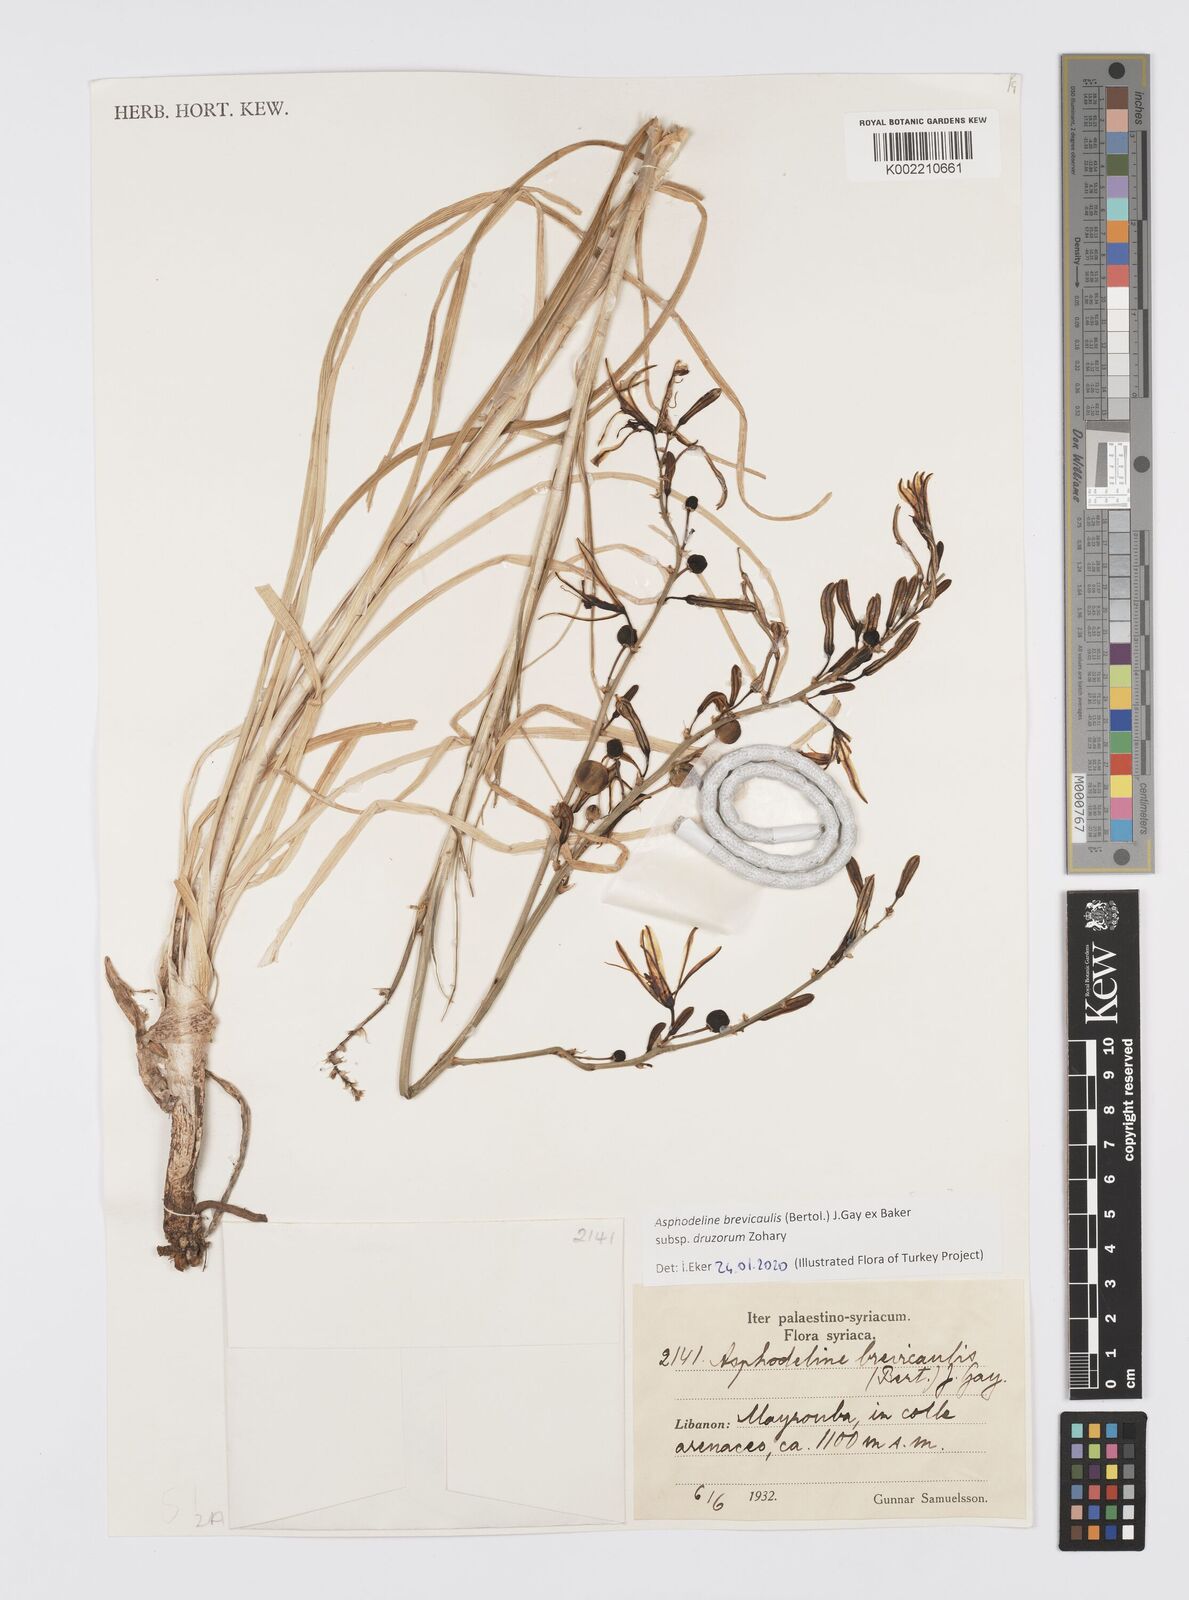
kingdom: Plantae
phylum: Tracheophyta
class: Liliopsida
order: Asparagales
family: Asphodelaceae
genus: Asphodeline
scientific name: Asphodeline brevicaulis
